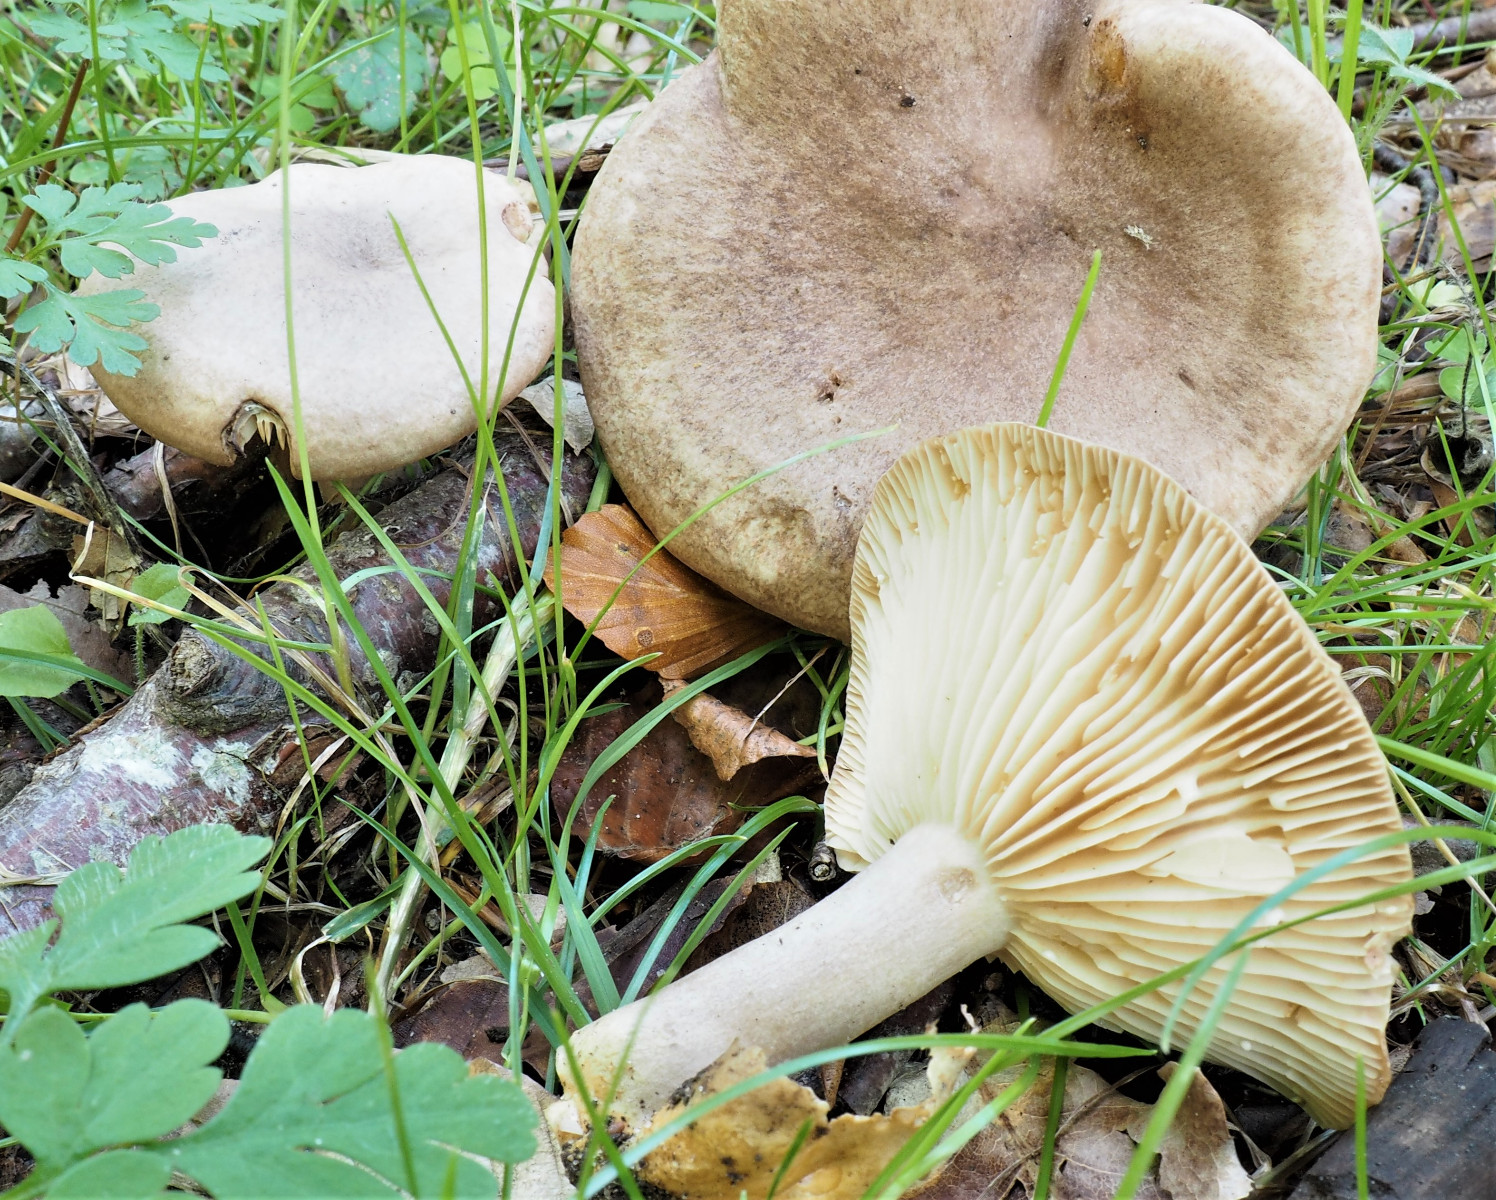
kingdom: Fungi
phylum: Basidiomycota
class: Agaricomycetes
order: Russulales
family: Russulaceae
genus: Lactarius
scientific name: Lactarius
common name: mælkehat
